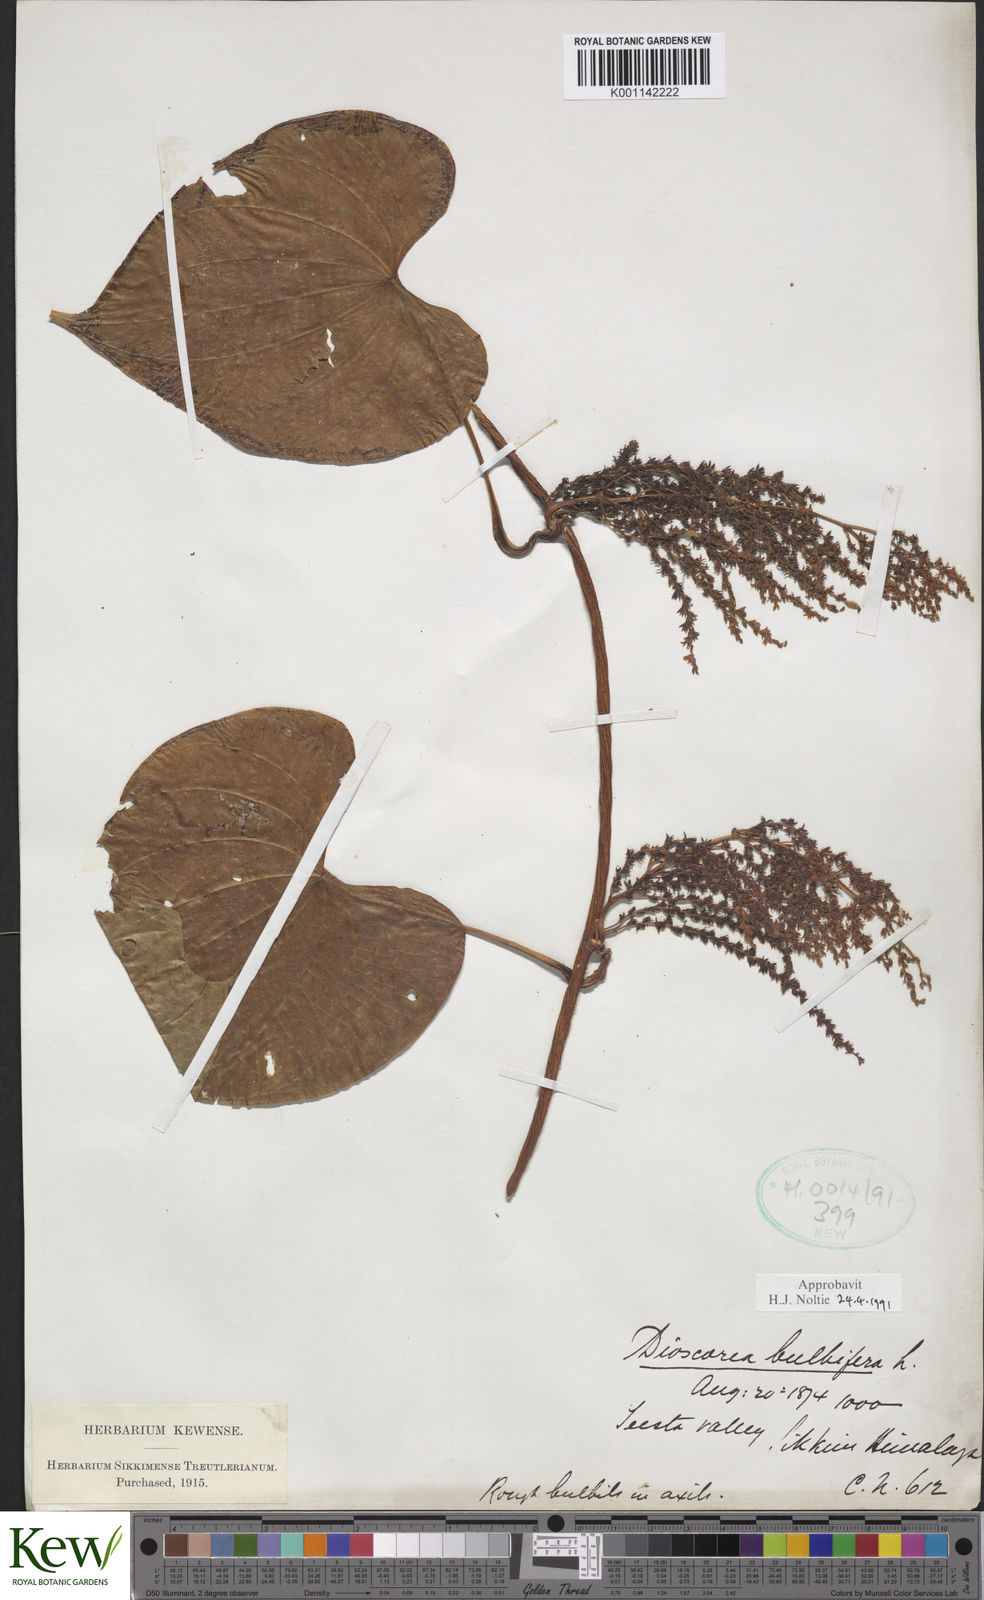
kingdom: Plantae
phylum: Tracheophyta
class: Liliopsida
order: Dioscoreales
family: Dioscoreaceae
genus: Dioscorea
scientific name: Dioscorea bulbifera
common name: Air yam
